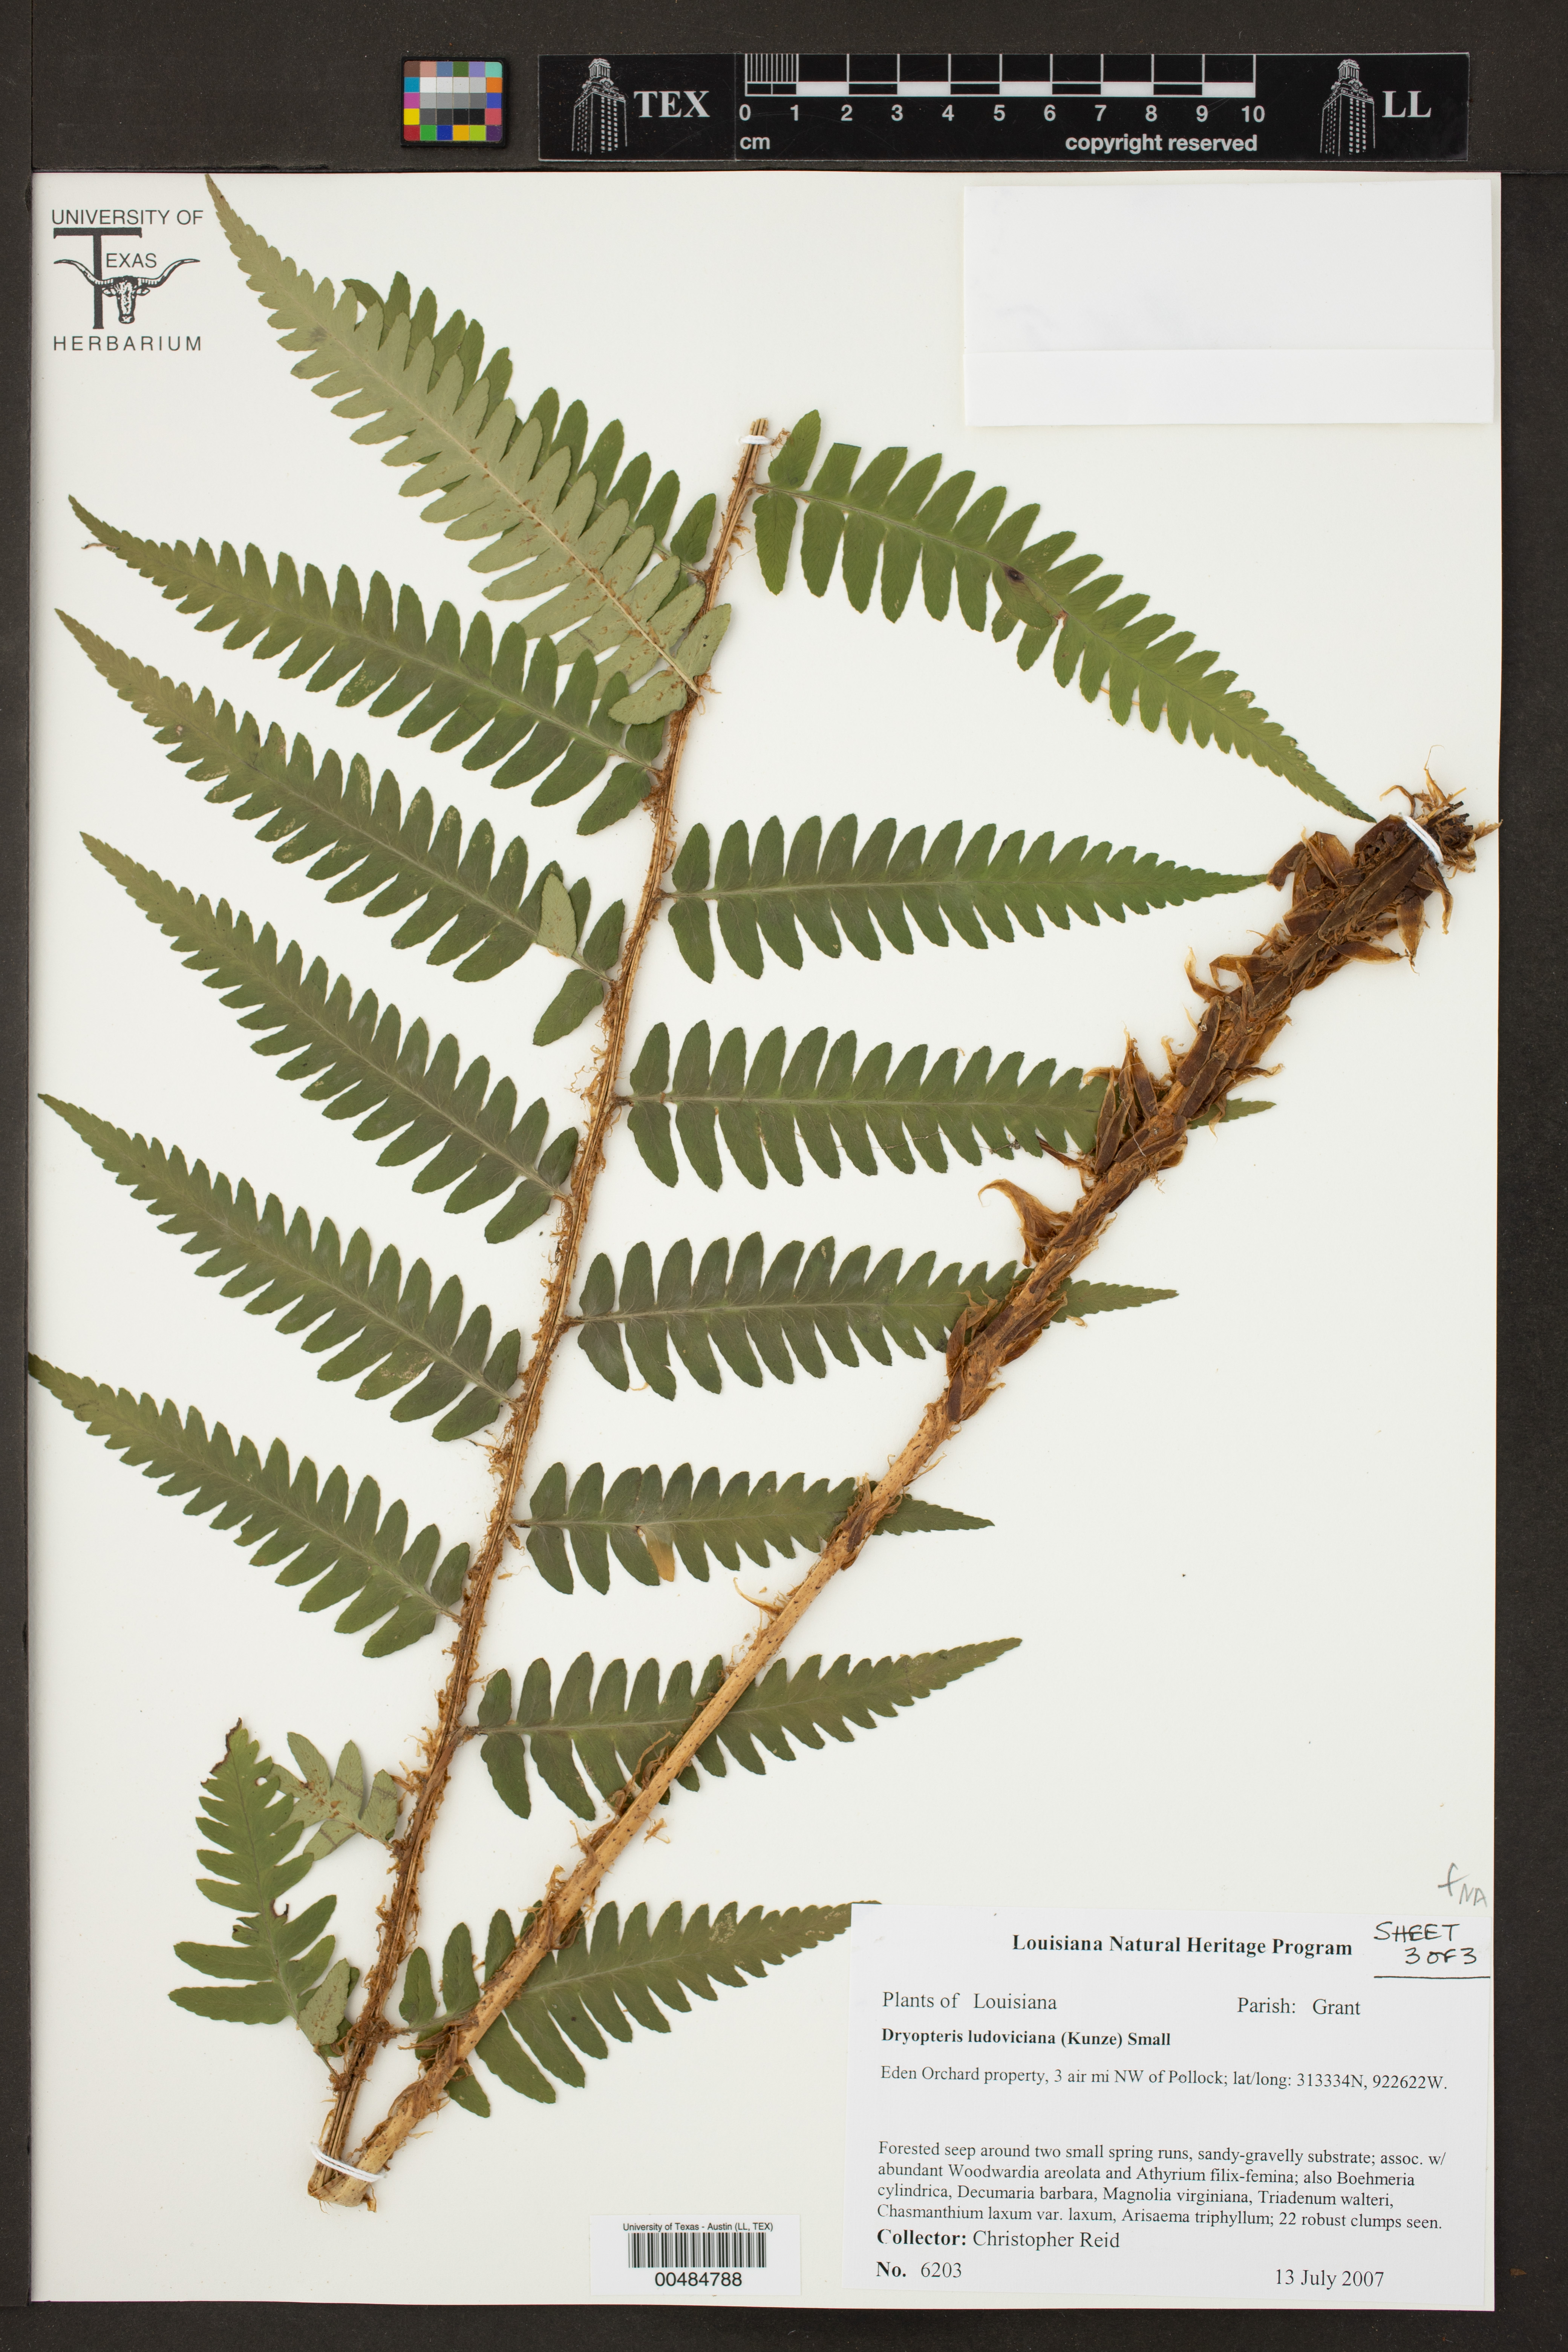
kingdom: Plantae
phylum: Tracheophyta
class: Polypodiopsida
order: Polypodiales
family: Dryopteridaceae
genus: Dryopteris
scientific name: Dryopteris ludoviciana
